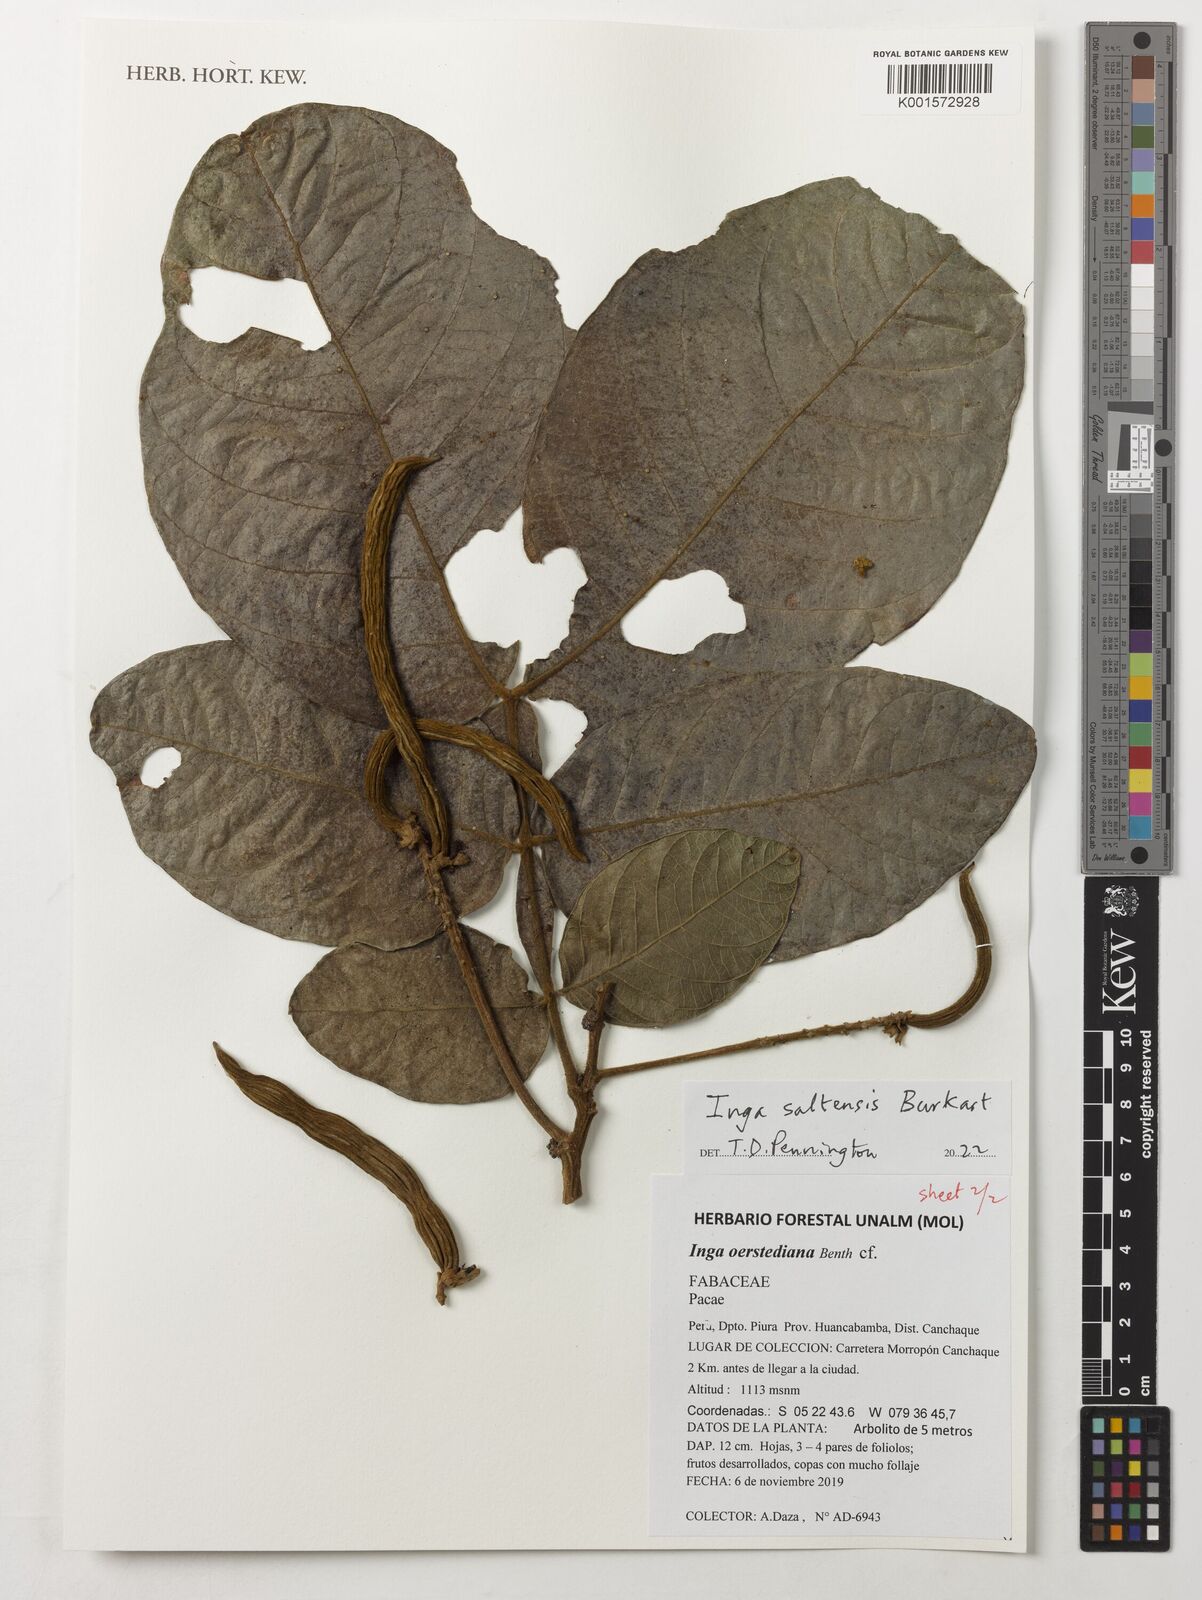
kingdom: Plantae
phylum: Tracheophyta
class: Magnoliopsida
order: Fabales
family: Fabaceae
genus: Inga
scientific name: Inga saltensis
